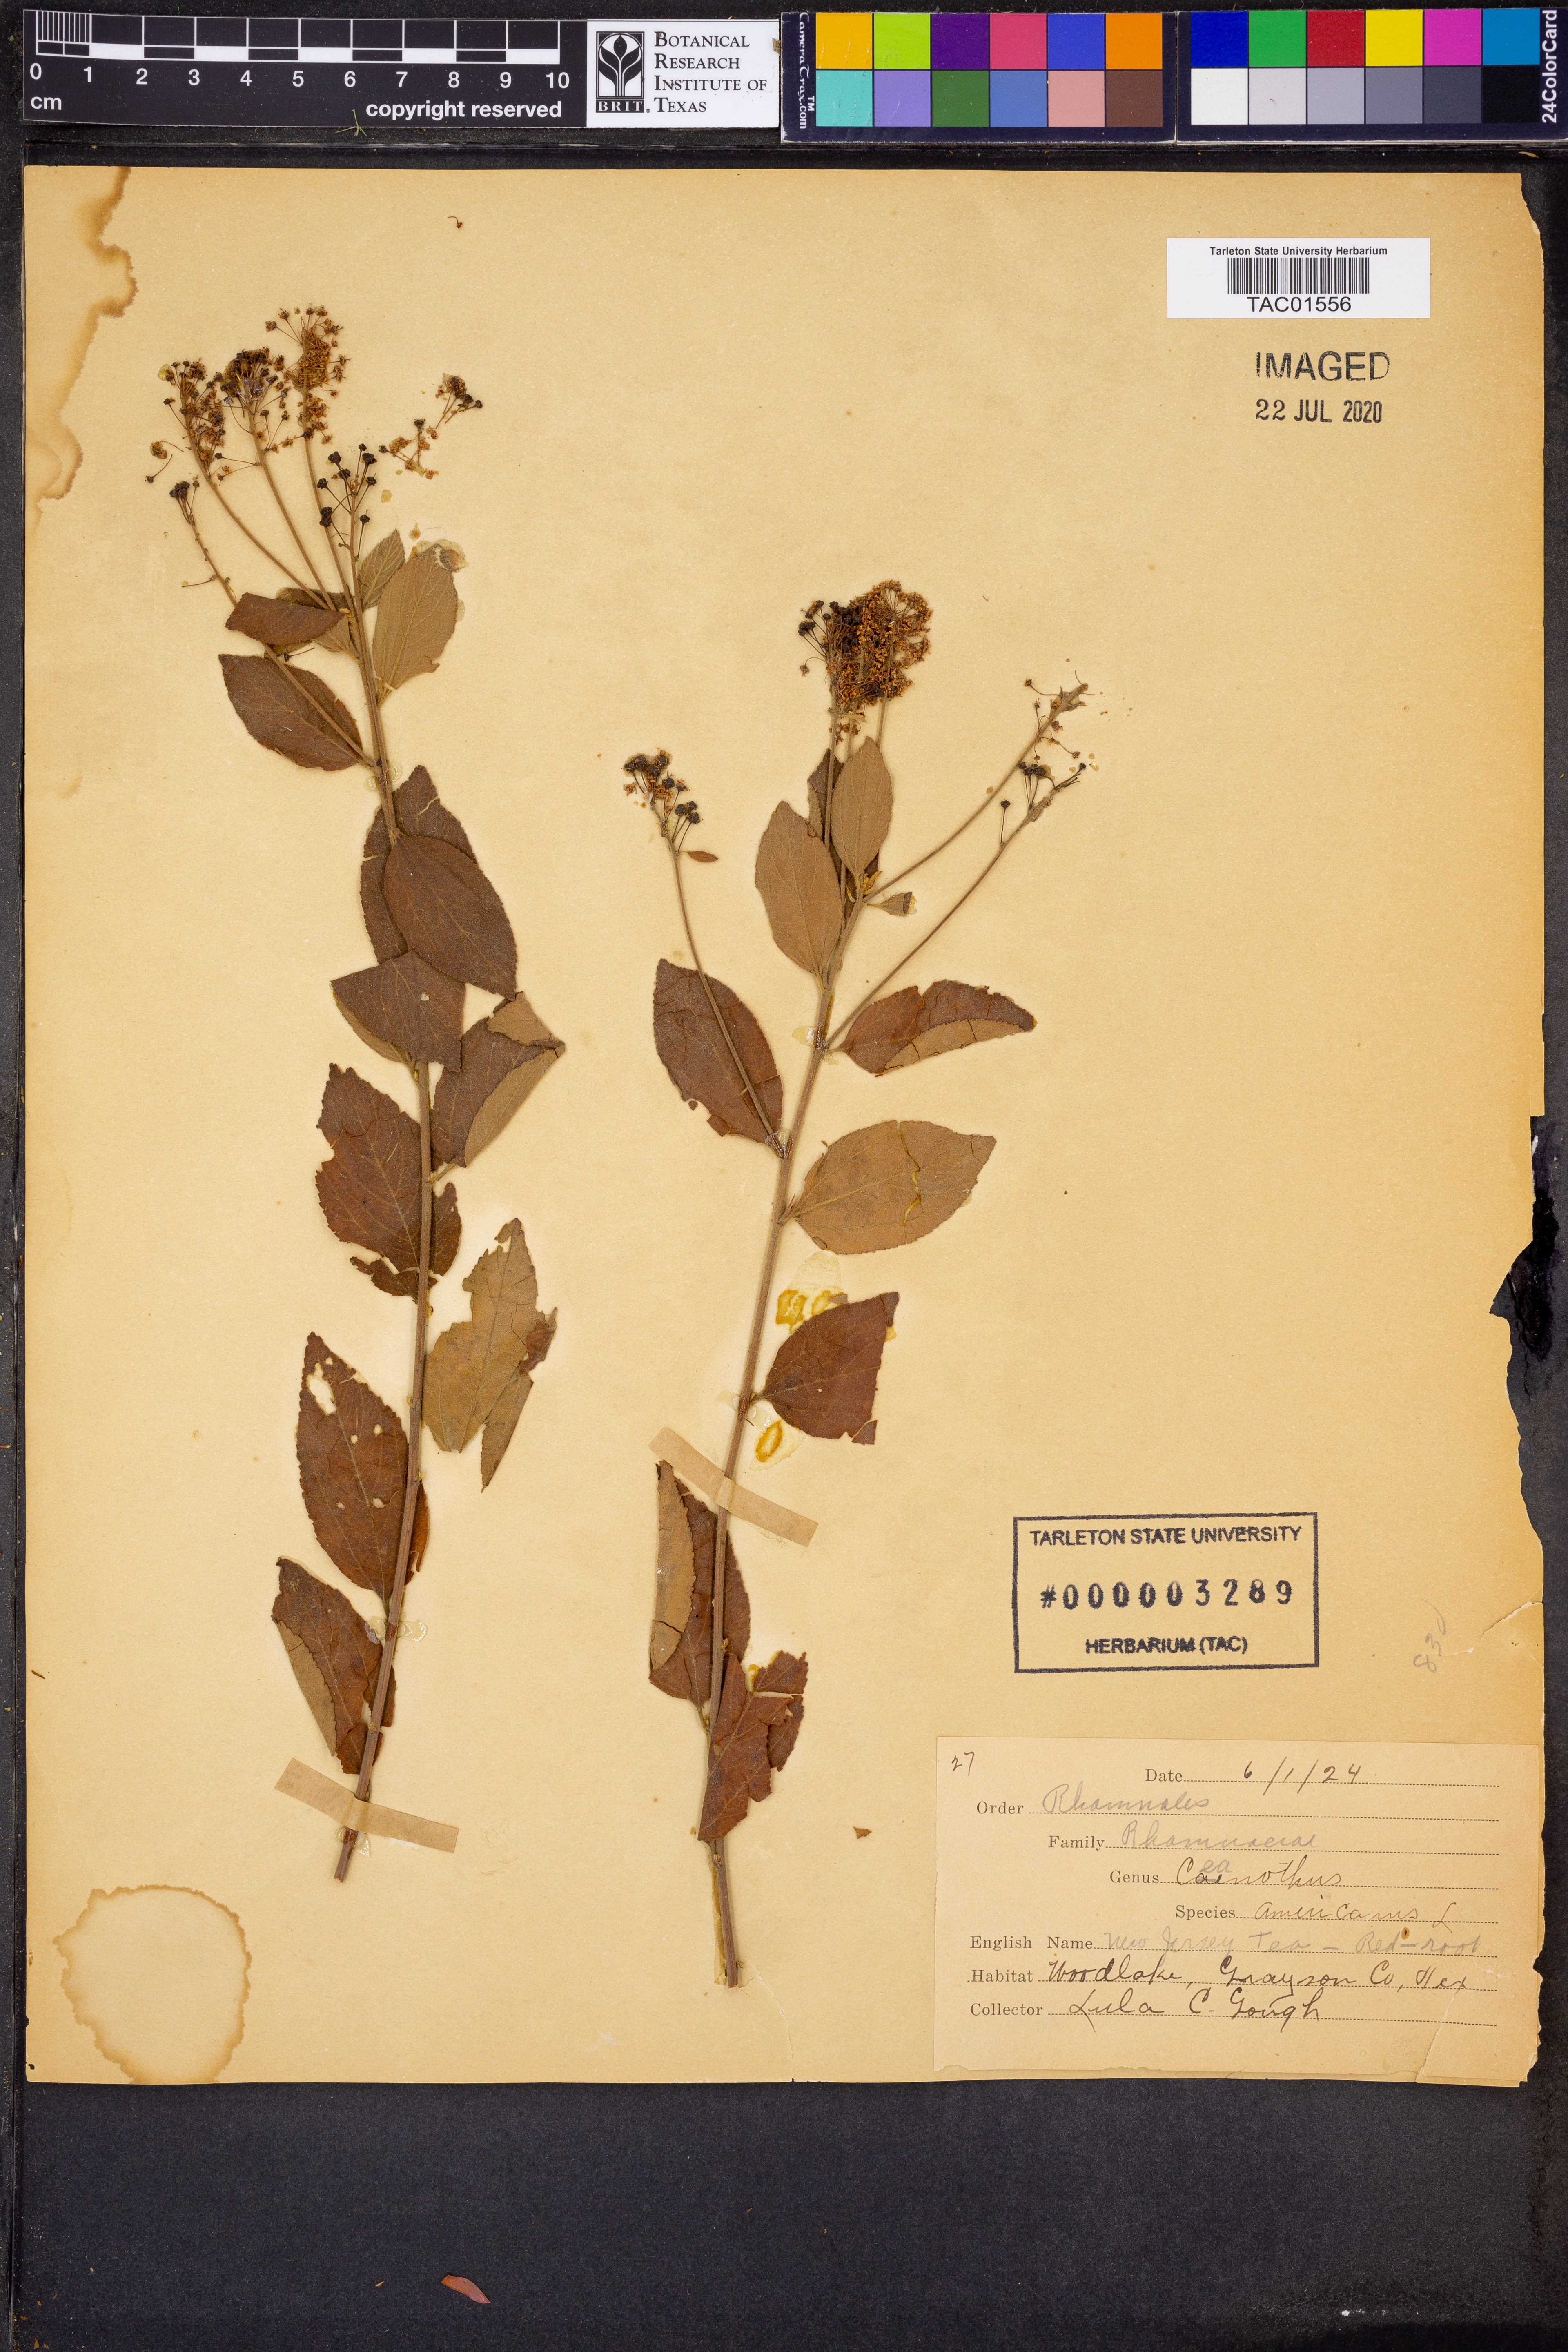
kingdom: Plantae
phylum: Tracheophyta
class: Magnoliopsida
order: Rosales
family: Rhamnaceae
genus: Ceanothus
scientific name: Ceanothus americanus
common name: Redroot
